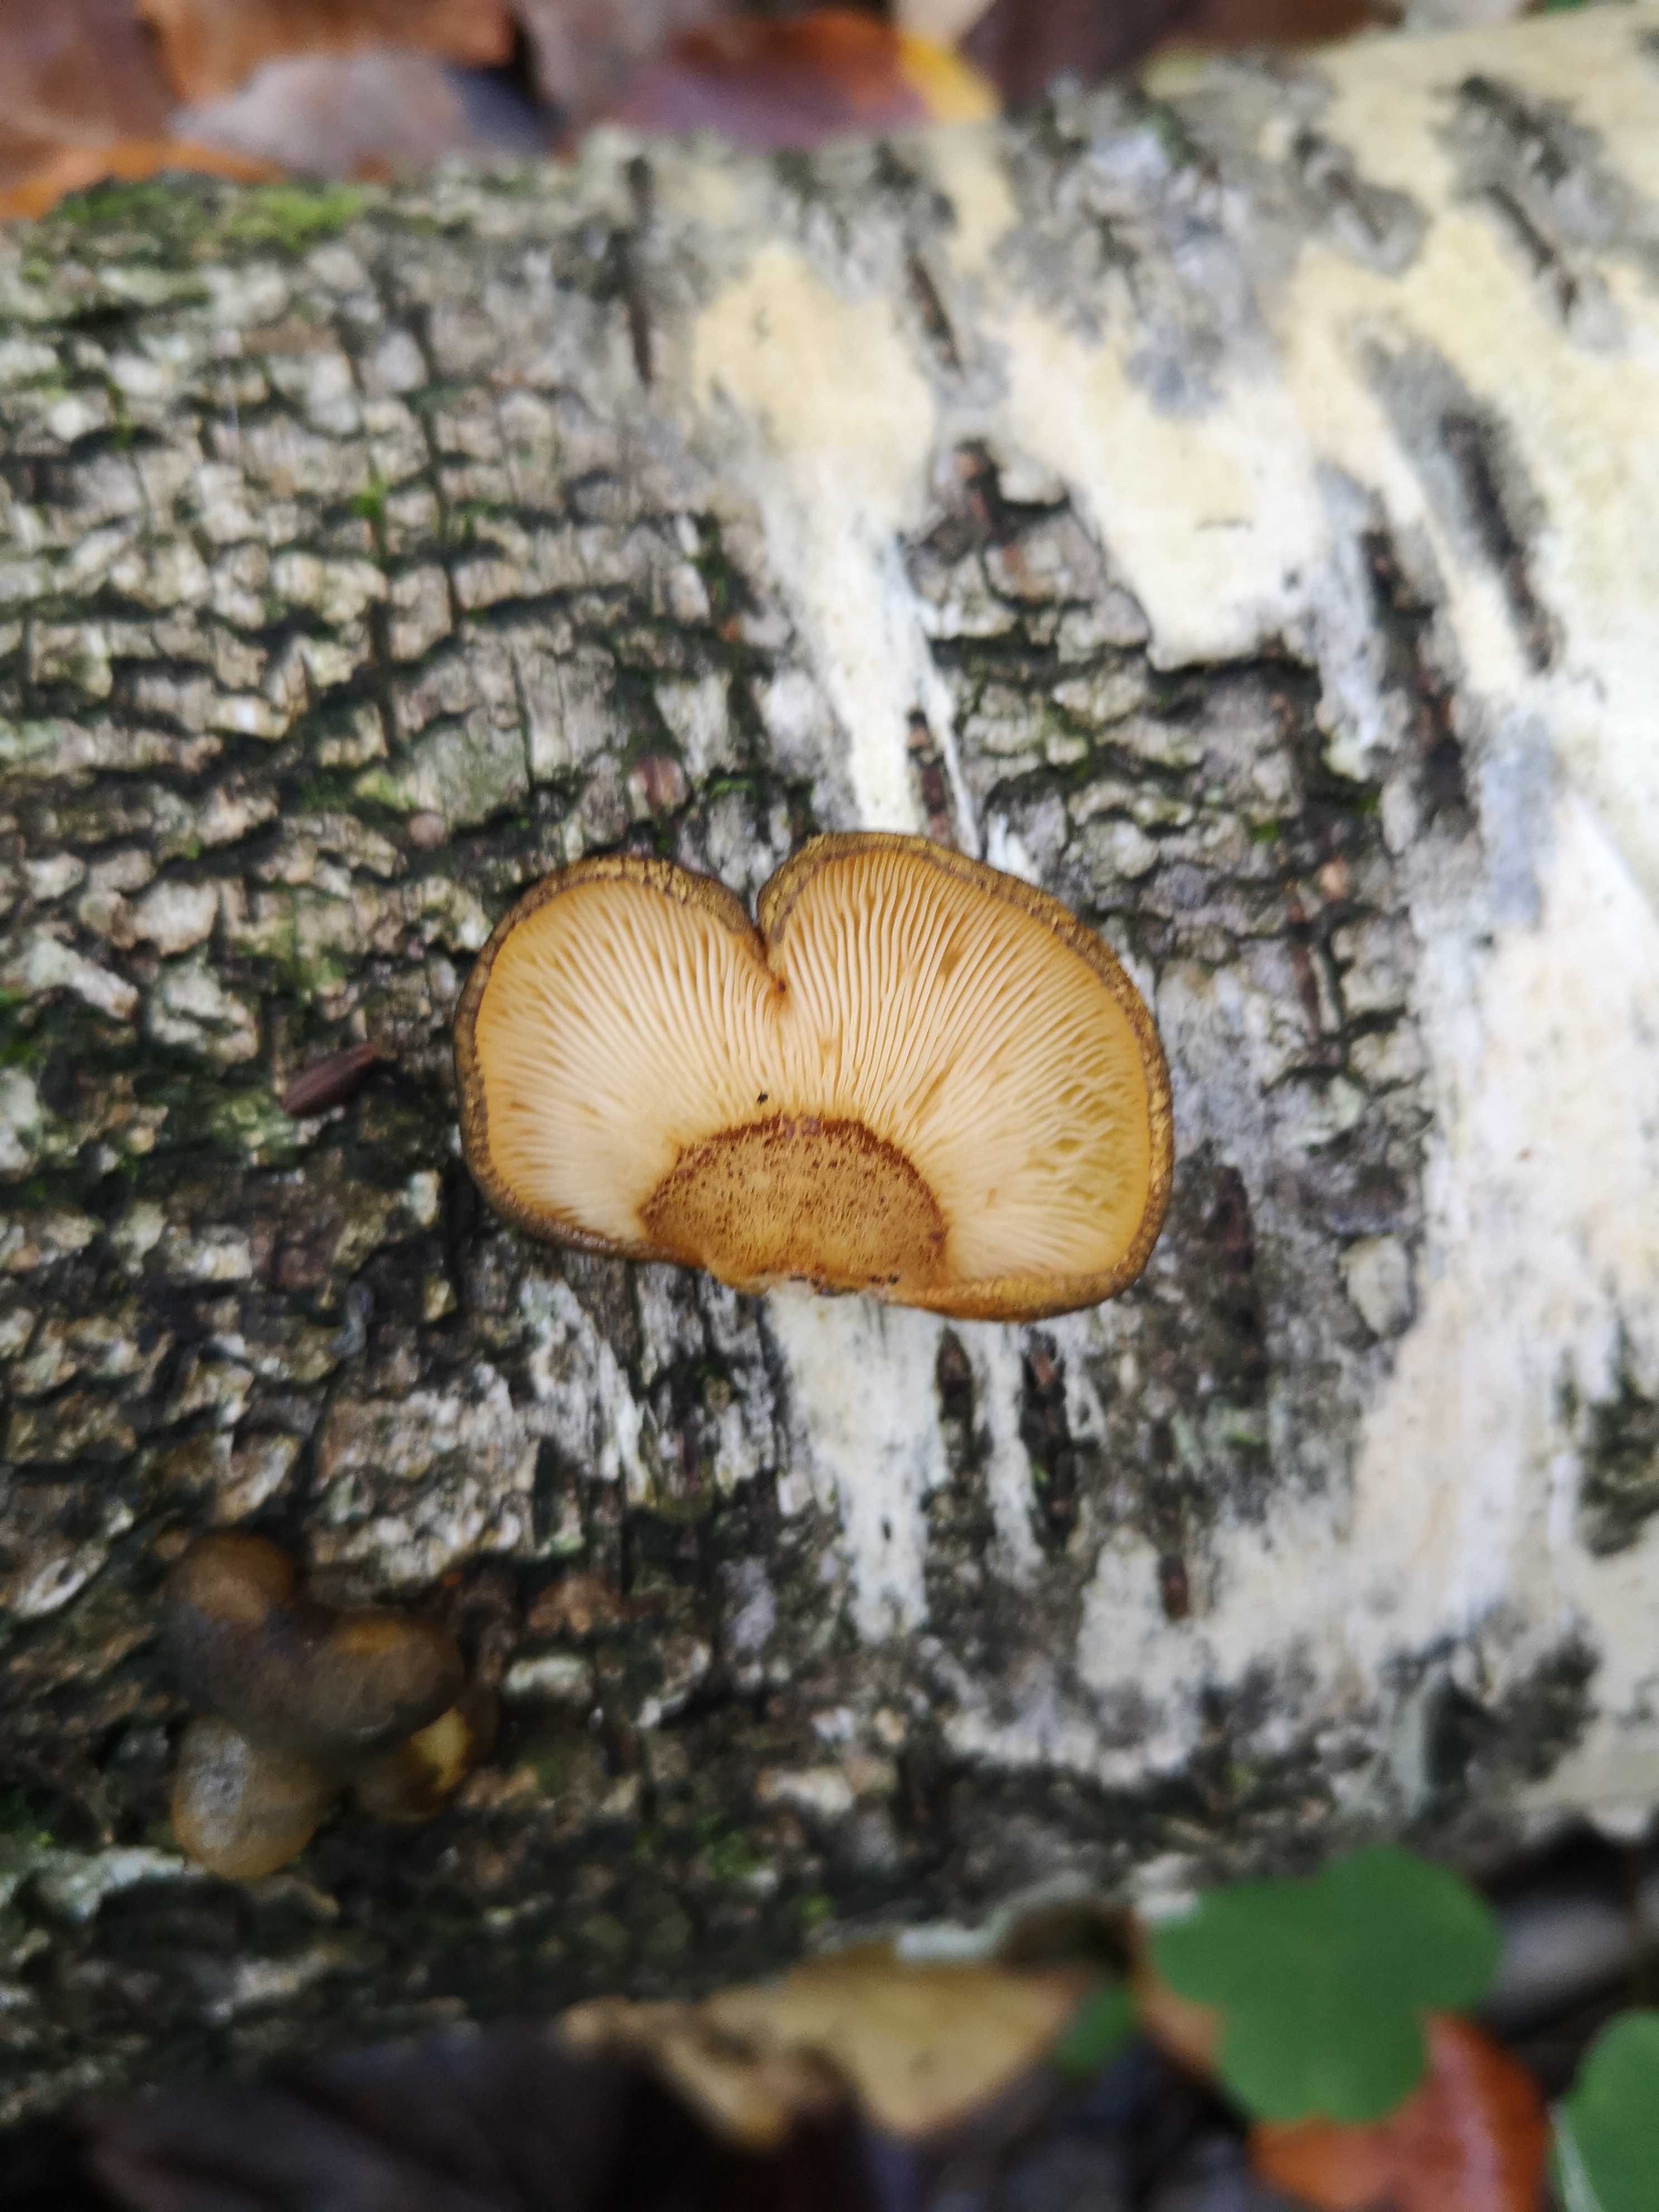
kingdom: Fungi
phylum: Basidiomycota
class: Agaricomycetes
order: Agaricales
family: Sarcomyxaceae
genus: Sarcomyxa
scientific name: Sarcomyxa serotina
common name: gummihat
